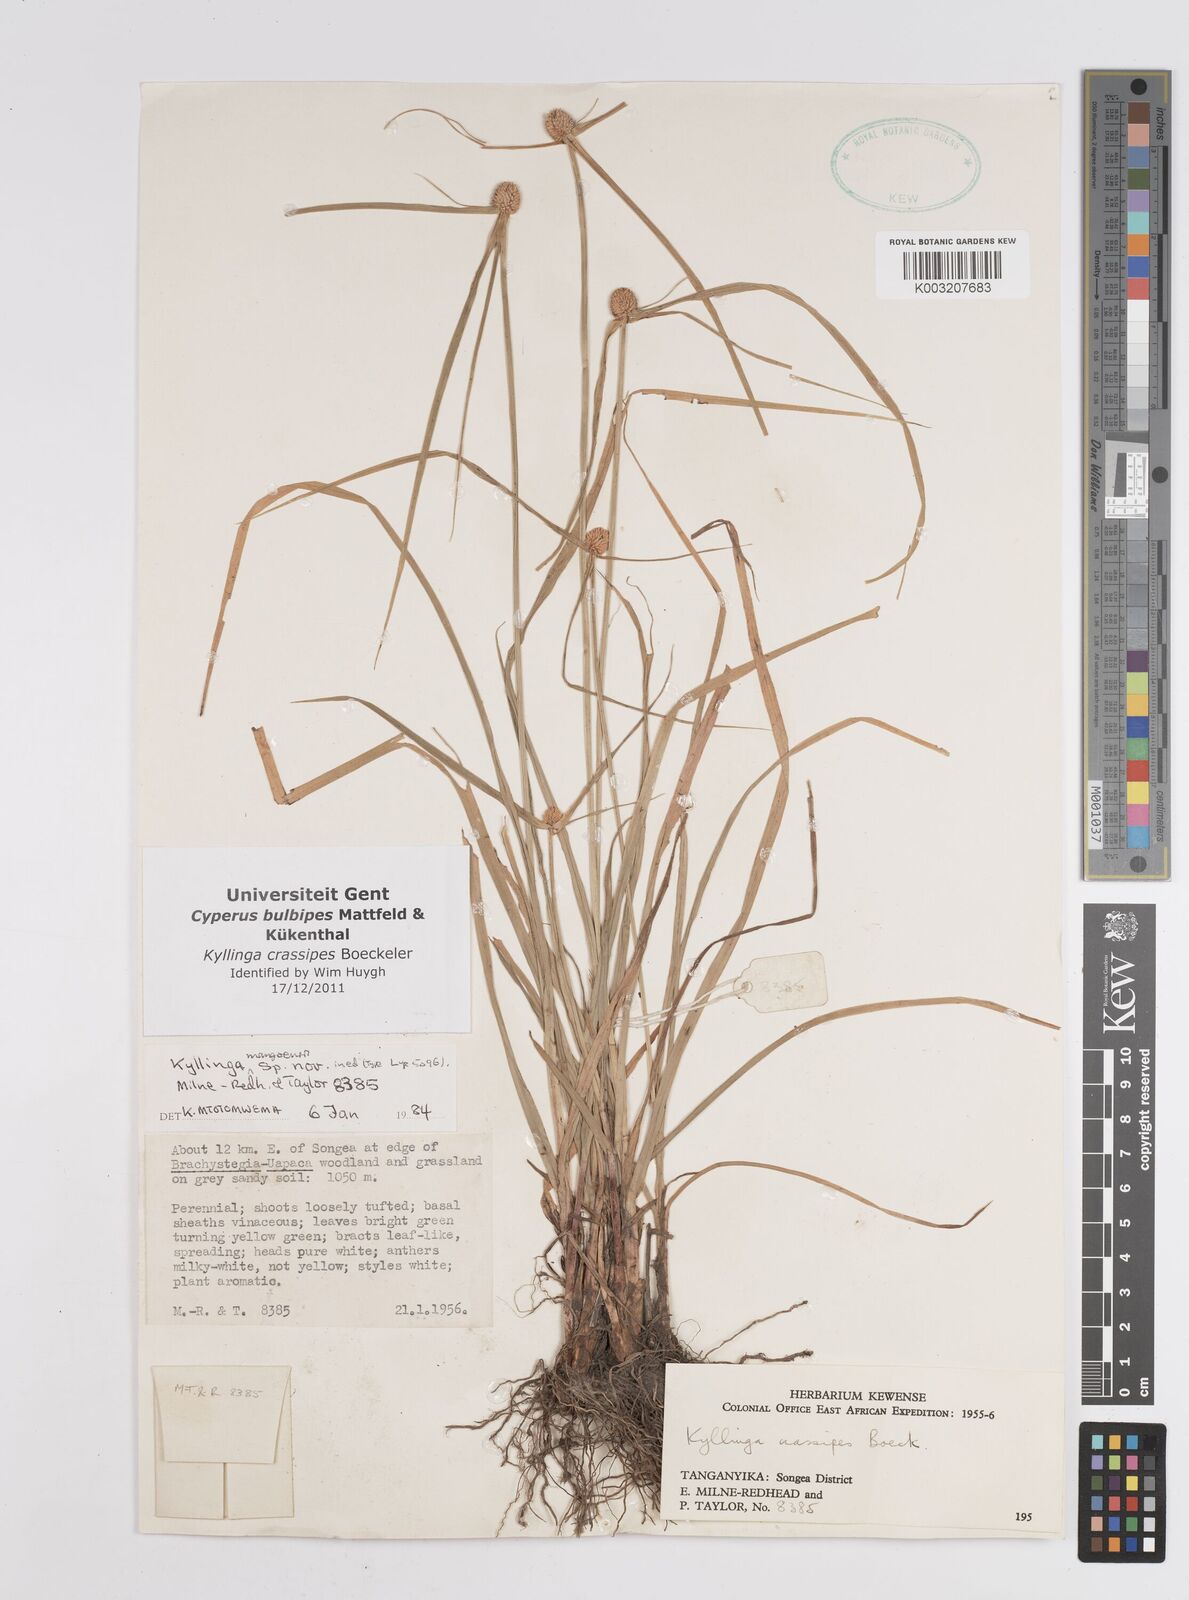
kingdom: Plantae
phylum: Tracheophyta
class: Liliopsida
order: Poales
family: Cyperaceae
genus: Cyperus
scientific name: Cyperus crassipes
